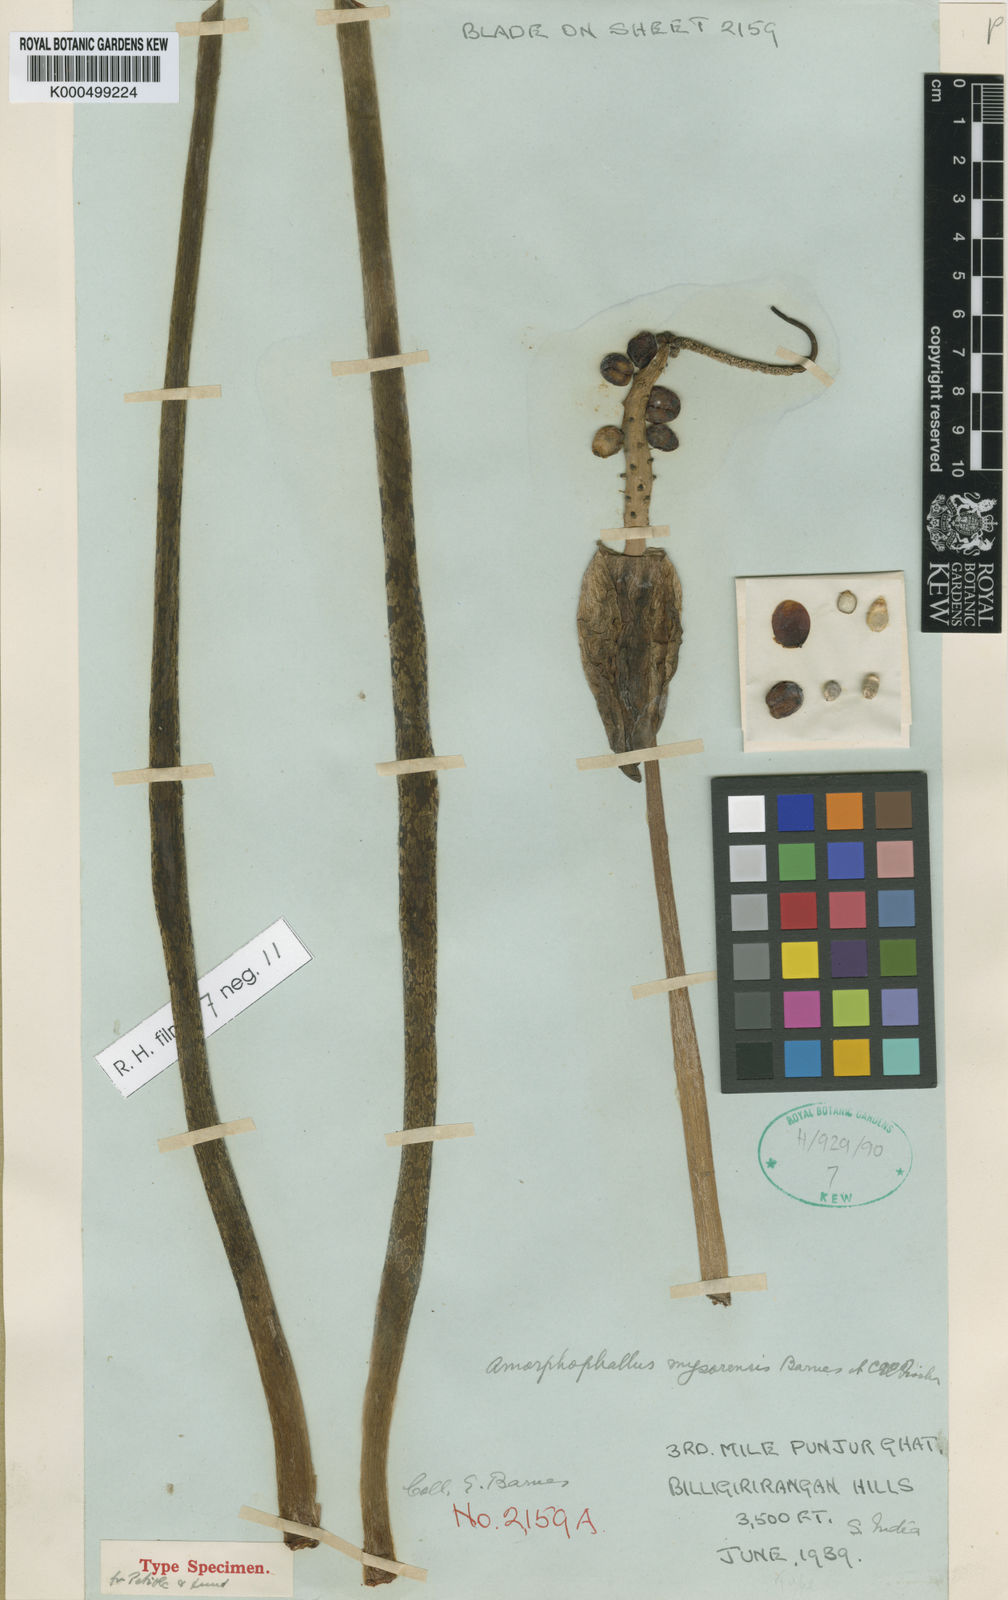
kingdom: Plantae
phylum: Tracheophyta
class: Liliopsida
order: Alismatales
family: Araceae
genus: Amorphophallus
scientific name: Amorphophallus mysorensis
